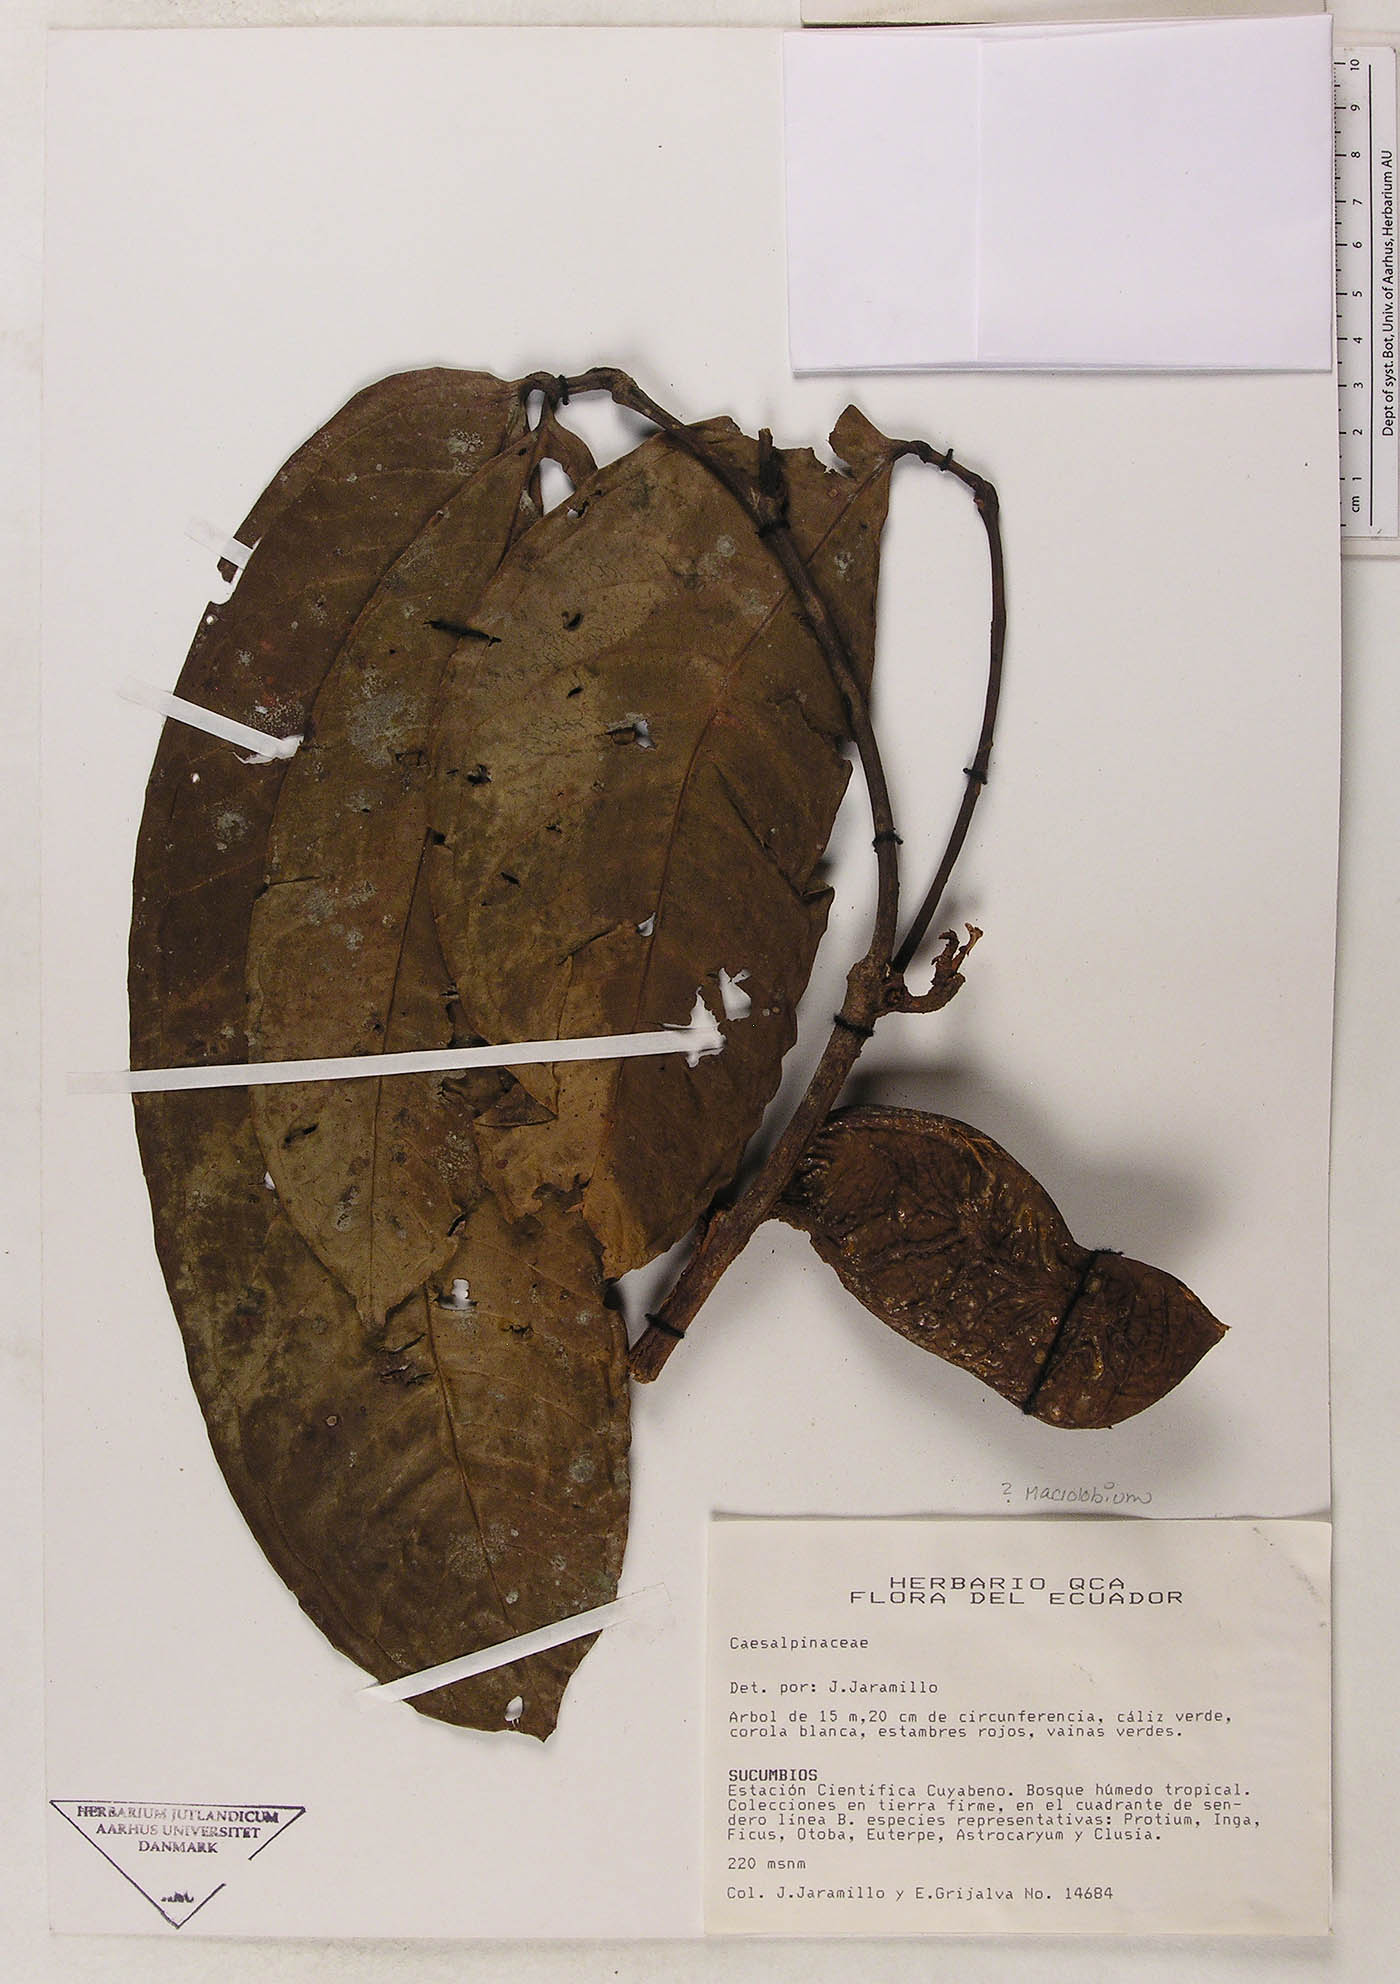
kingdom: Plantae
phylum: Tracheophyta
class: Magnoliopsida
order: Fabales
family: Fabaceae
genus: Macrolobium
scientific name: Macrolobium
